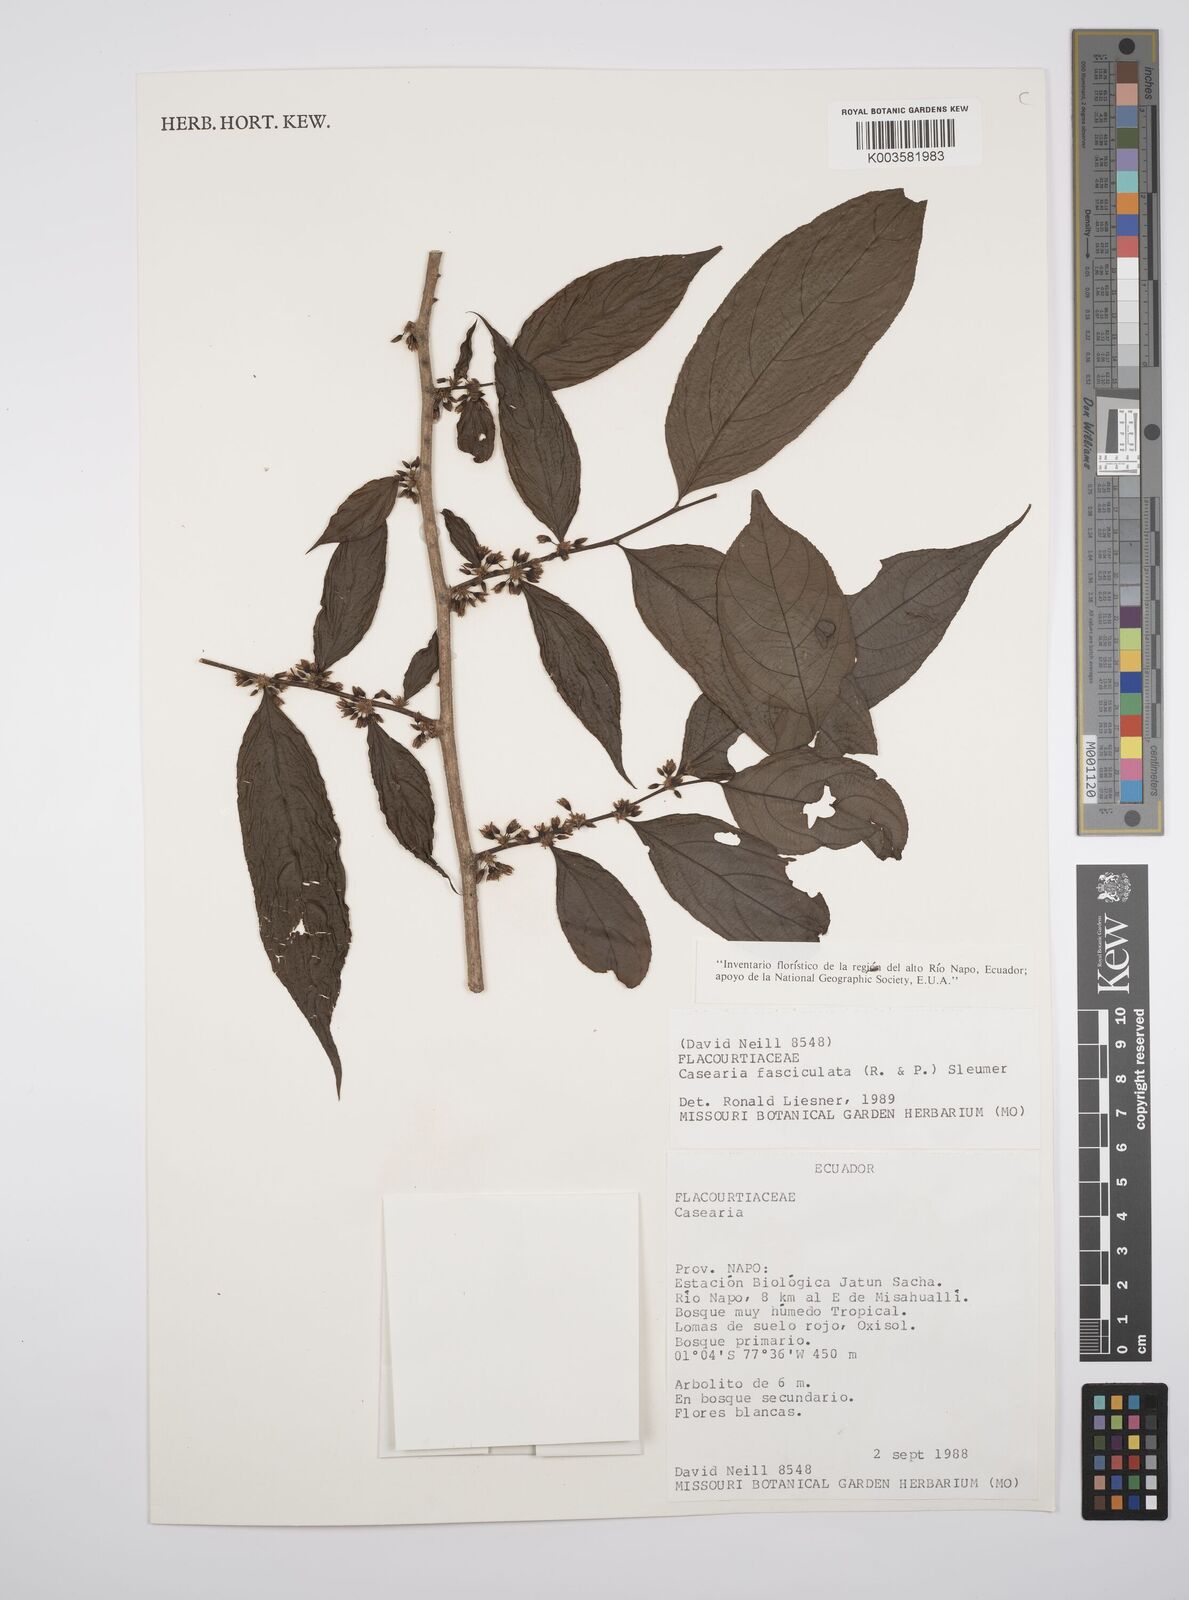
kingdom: Plantae
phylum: Tracheophyta
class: Magnoliopsida
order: Malpighiales
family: Salicaceae
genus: Casearia
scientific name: Casearia
